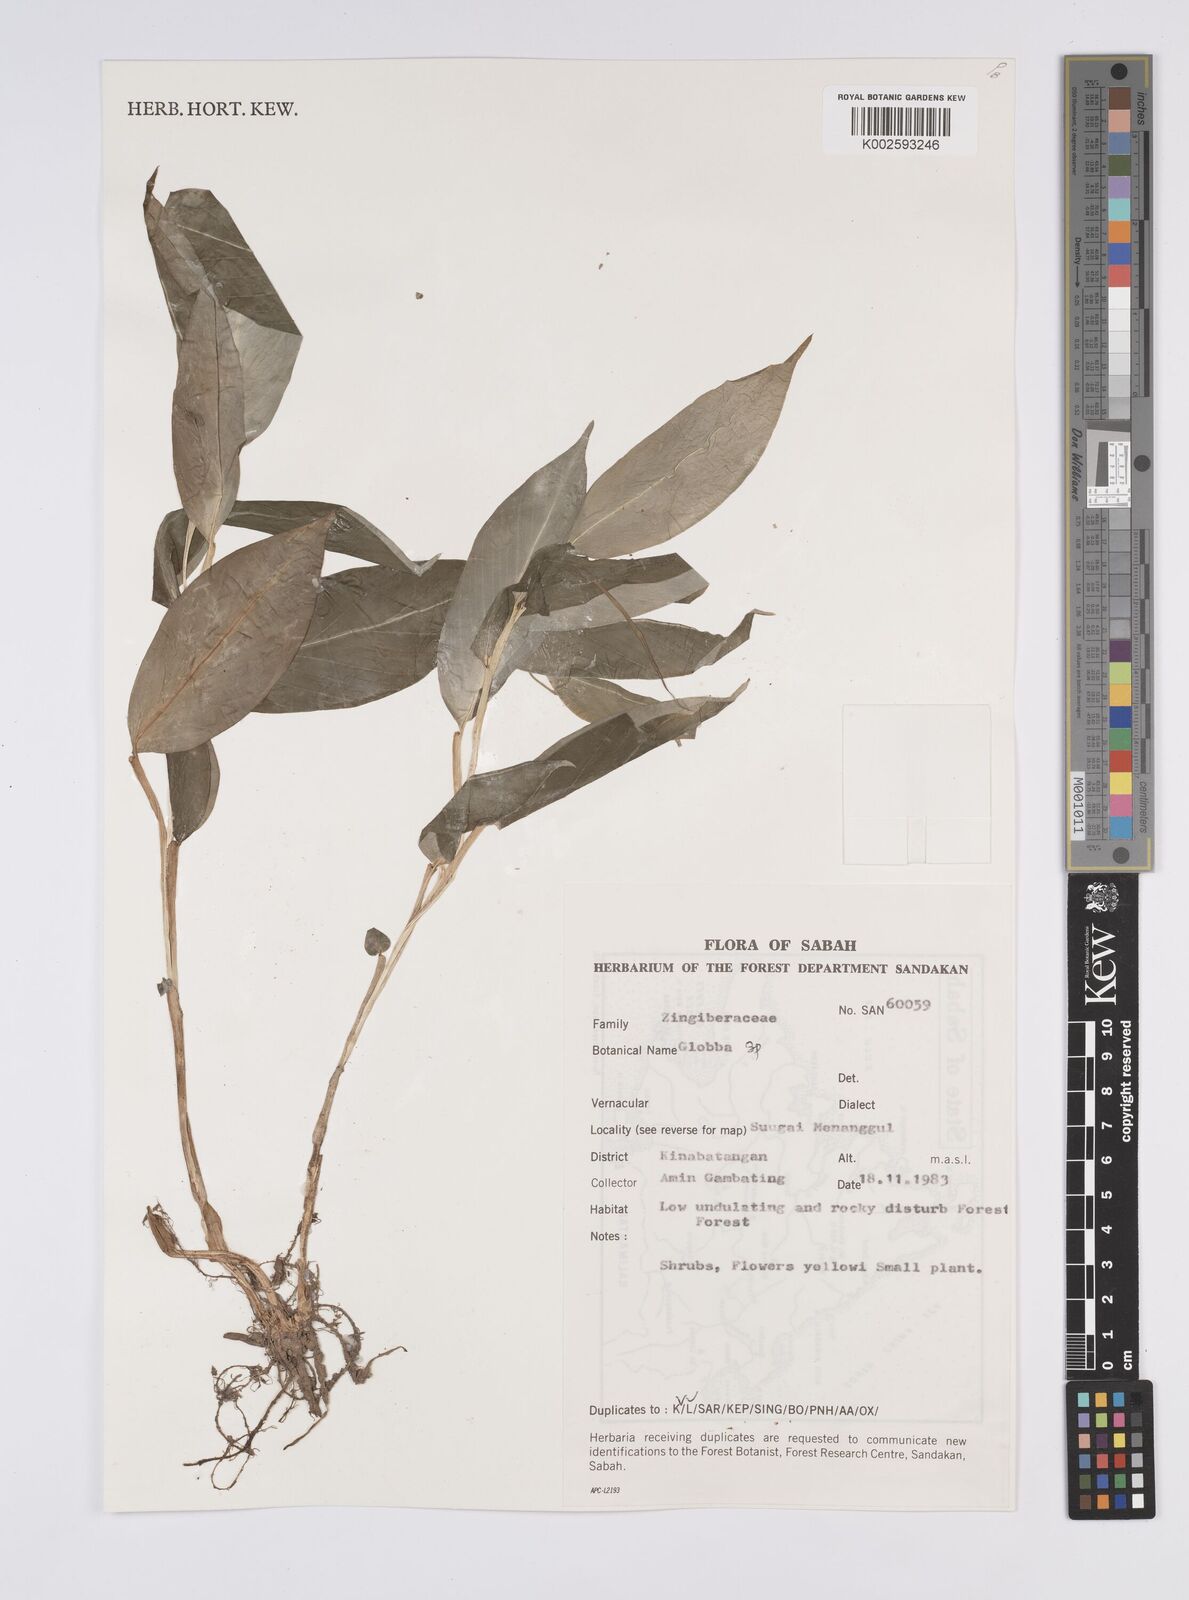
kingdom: Plantae
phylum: Tracheophyta
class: Liliopsida
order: Zingiberales
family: Zingiberaceae
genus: Globba
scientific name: Globba
